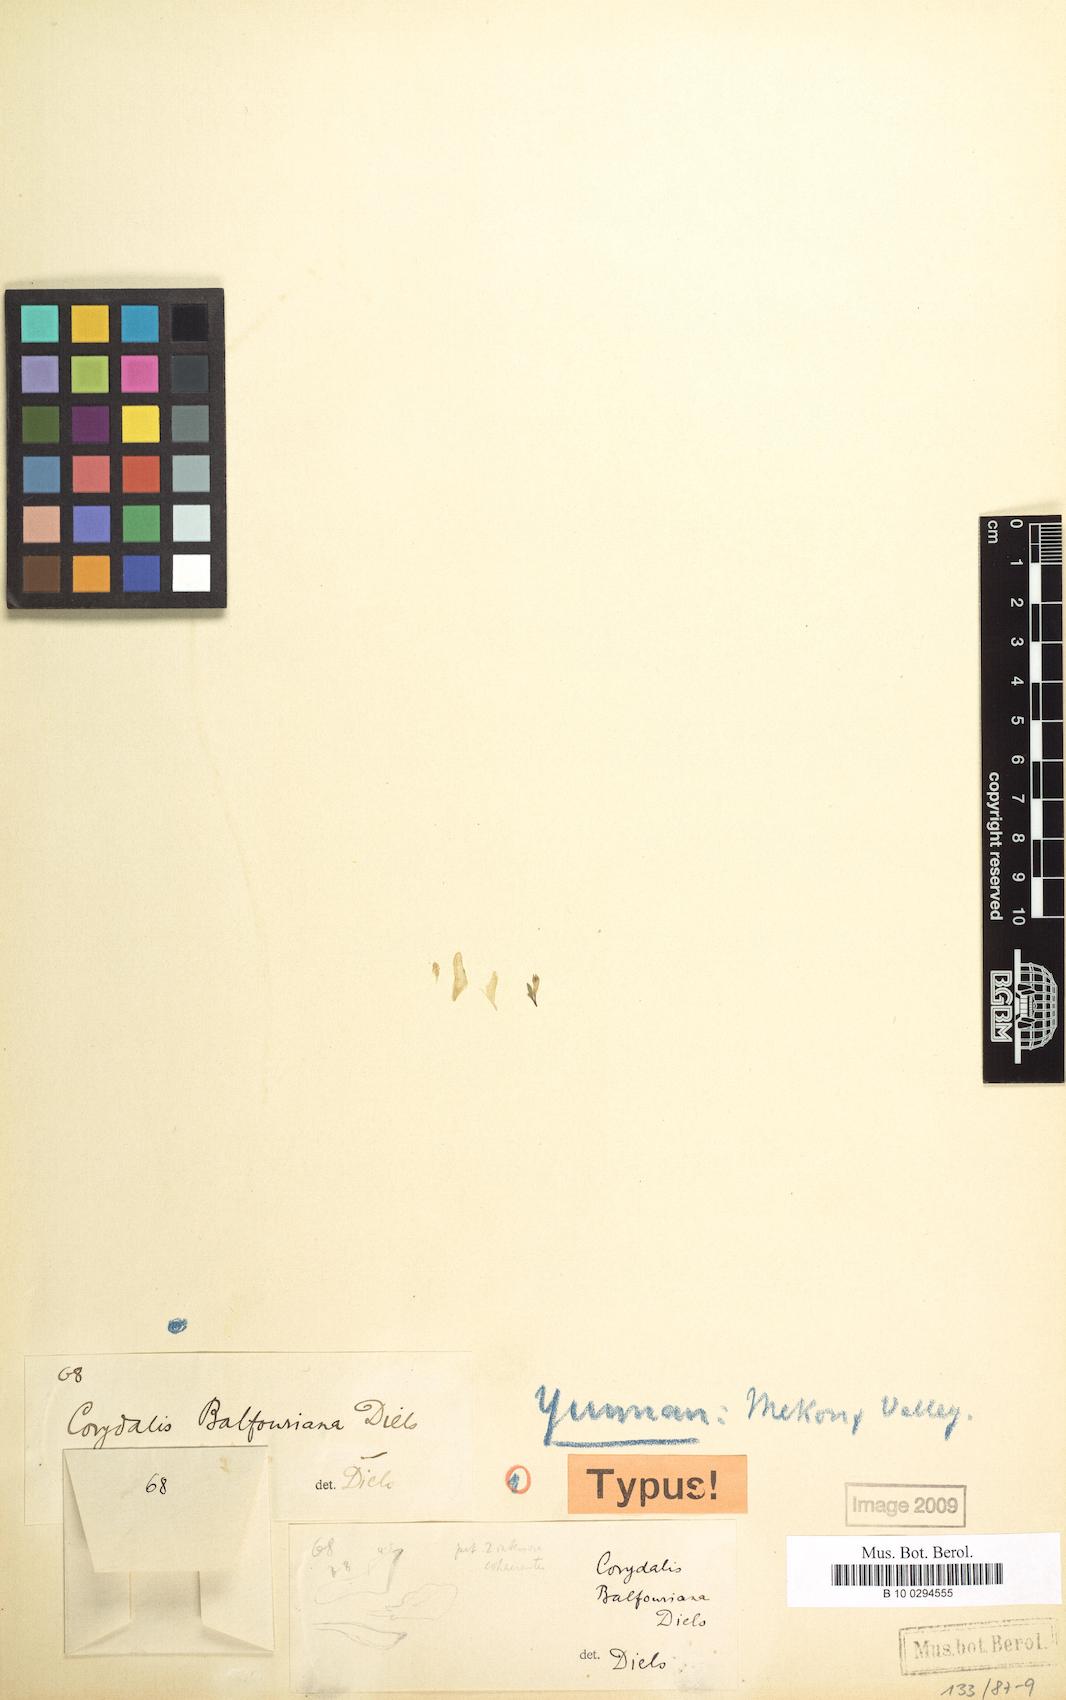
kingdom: Plantae
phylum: Tracheophyta
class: Magnoliopsida
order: Ranunculales
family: Papaveraceae
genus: Corydalis
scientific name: Corydalis oxypetala
